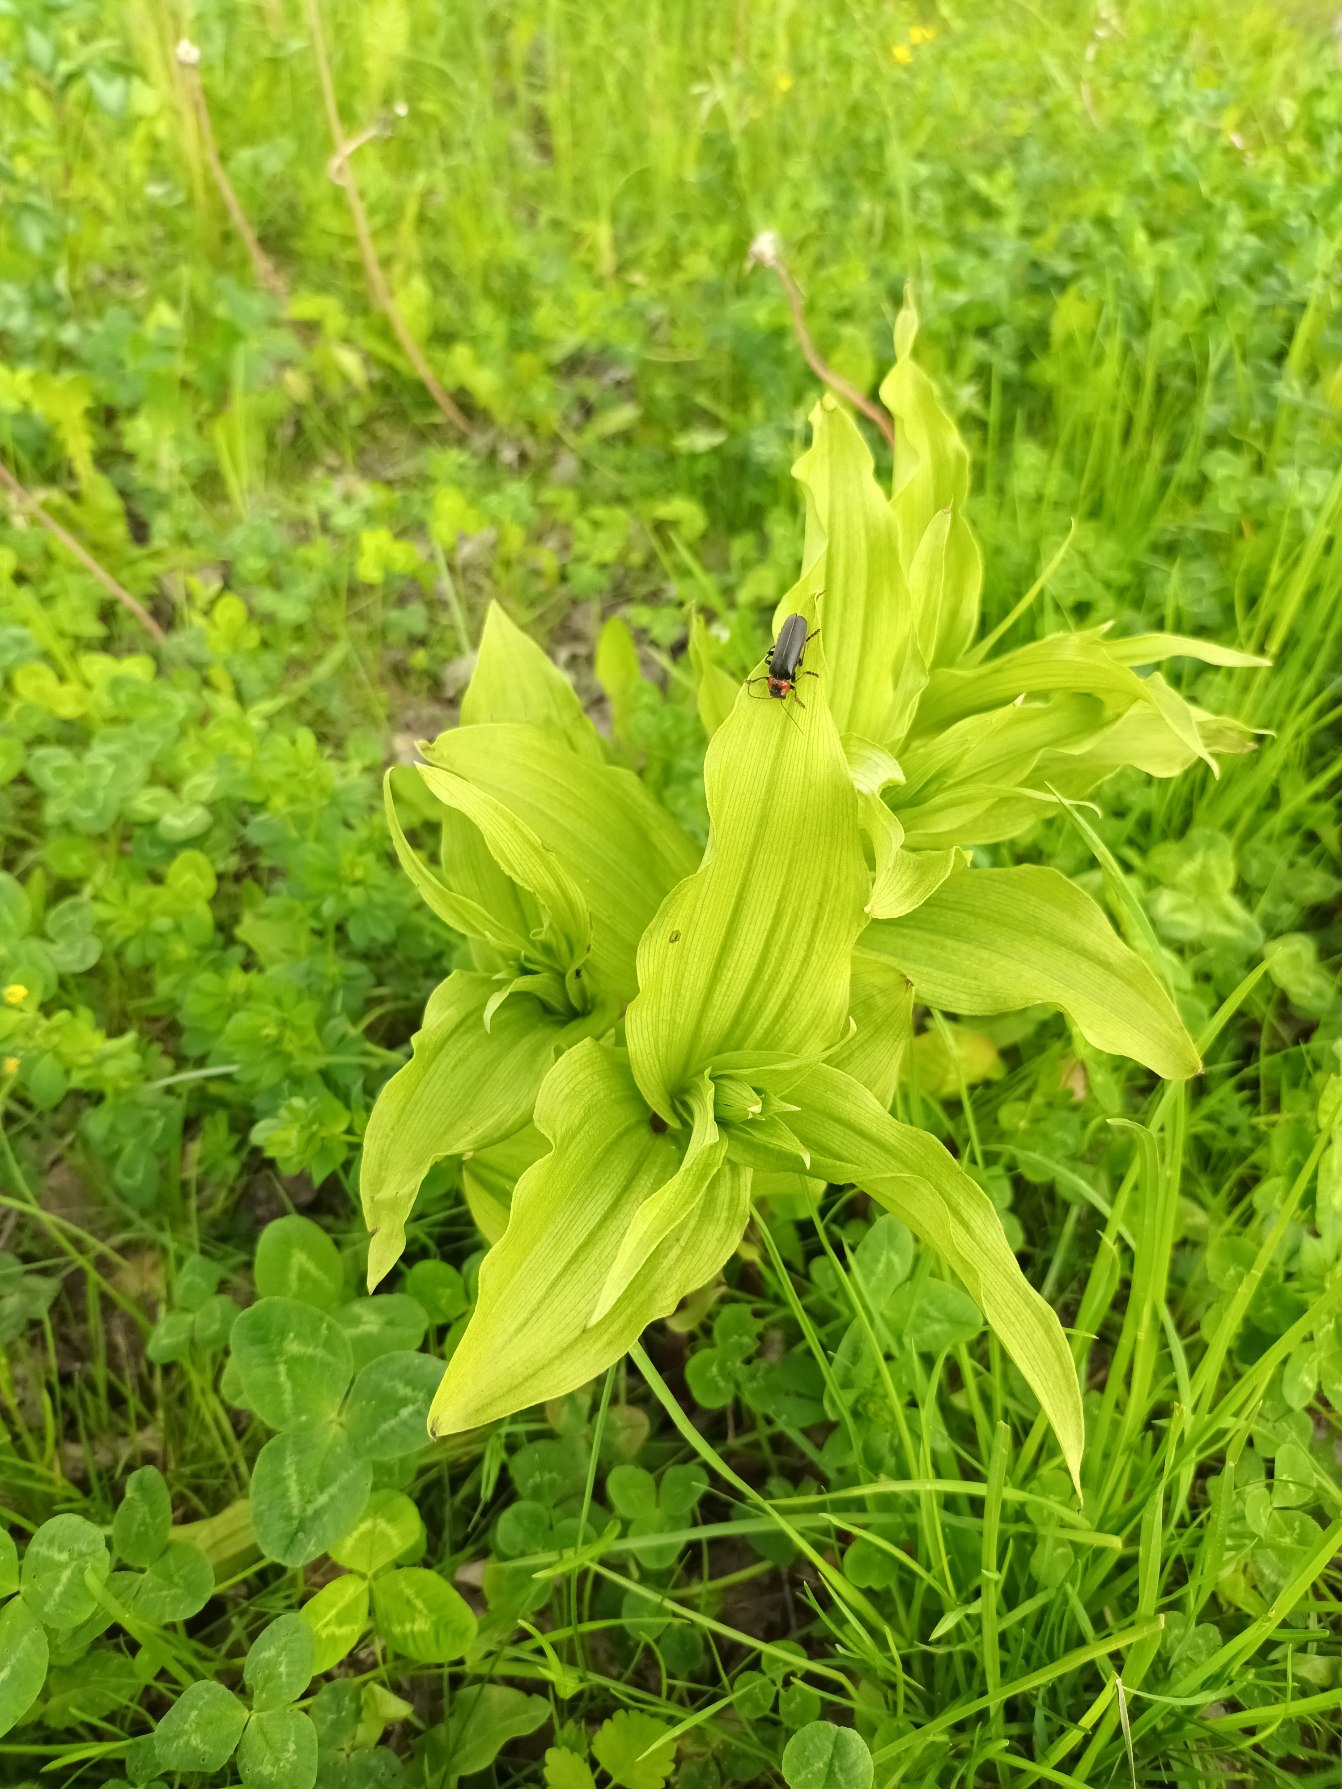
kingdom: Plantae
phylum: Tracheophyta
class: Liliopsida
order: Asparagales
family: Orchidaceae
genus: Epipactis
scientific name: Epipactis helleborine
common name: Skov-hullæbe
